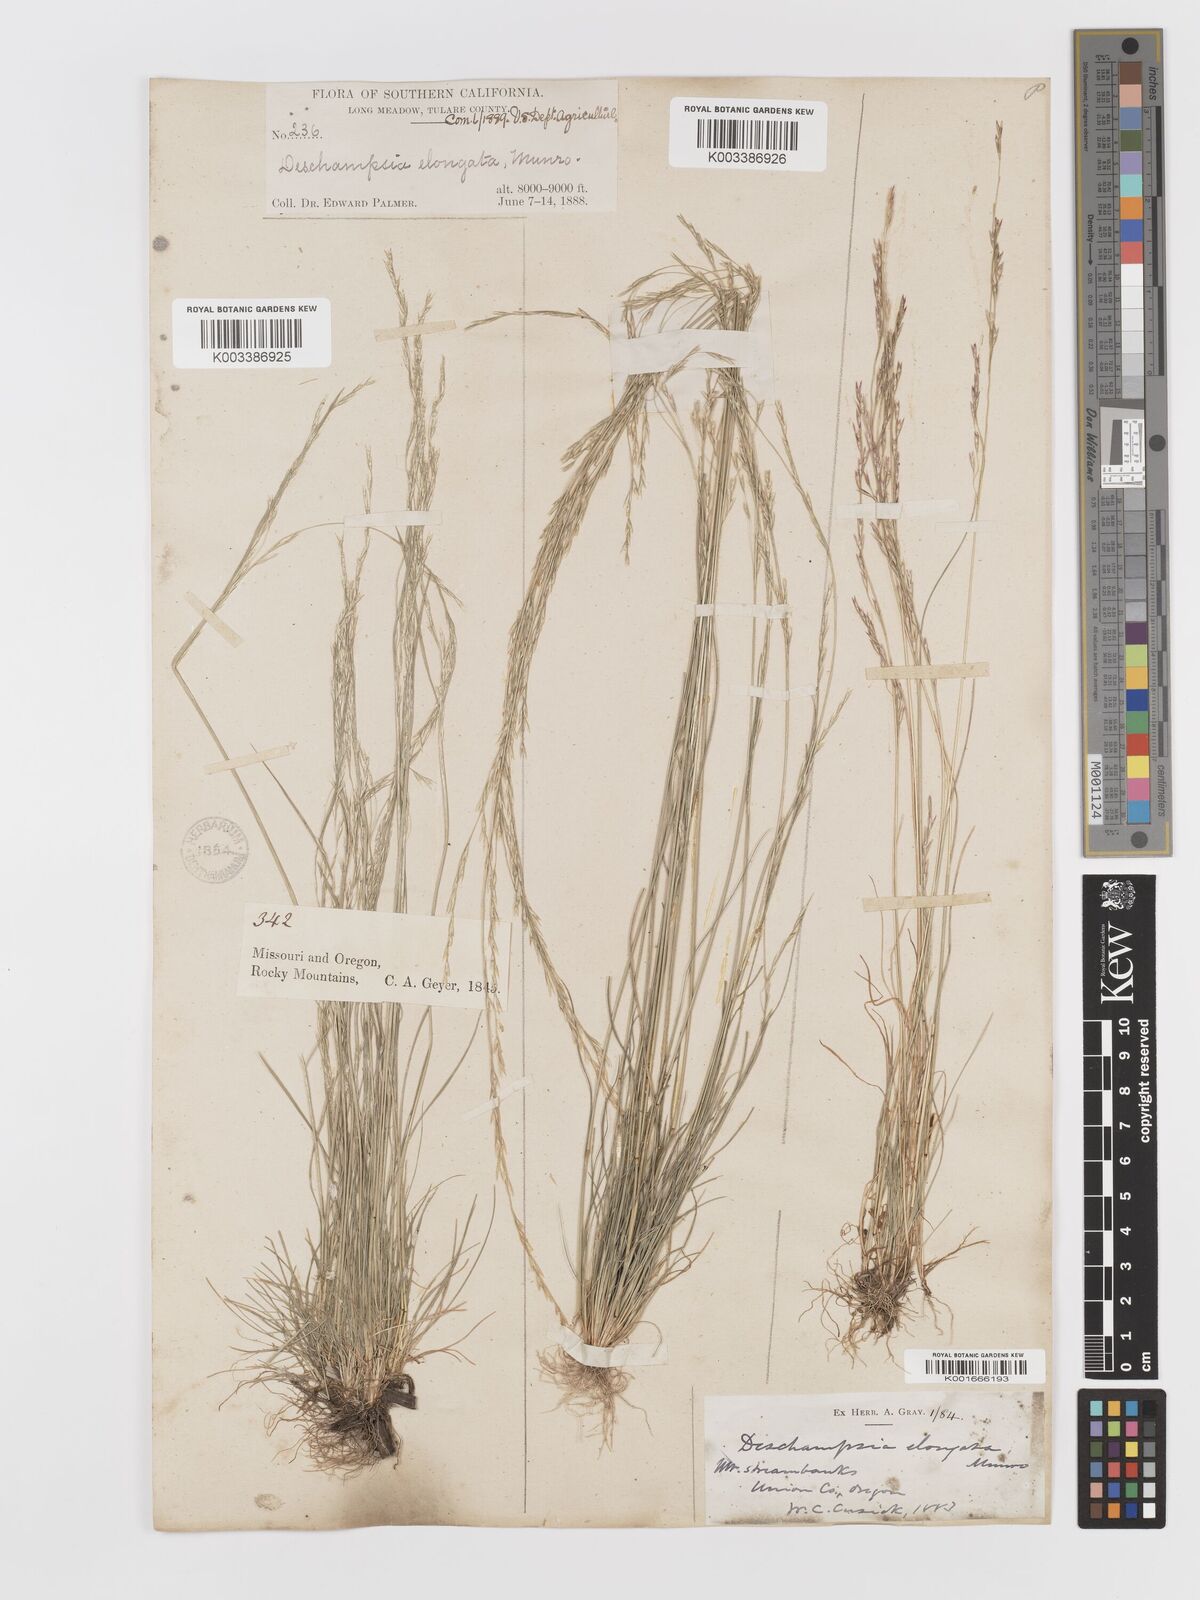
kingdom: Plantae
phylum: Tracheophyta
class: Liliopsida
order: Poales
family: Poaceae
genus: Deschampsia
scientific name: Deschampsia elongata
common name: Slender hairgrass
